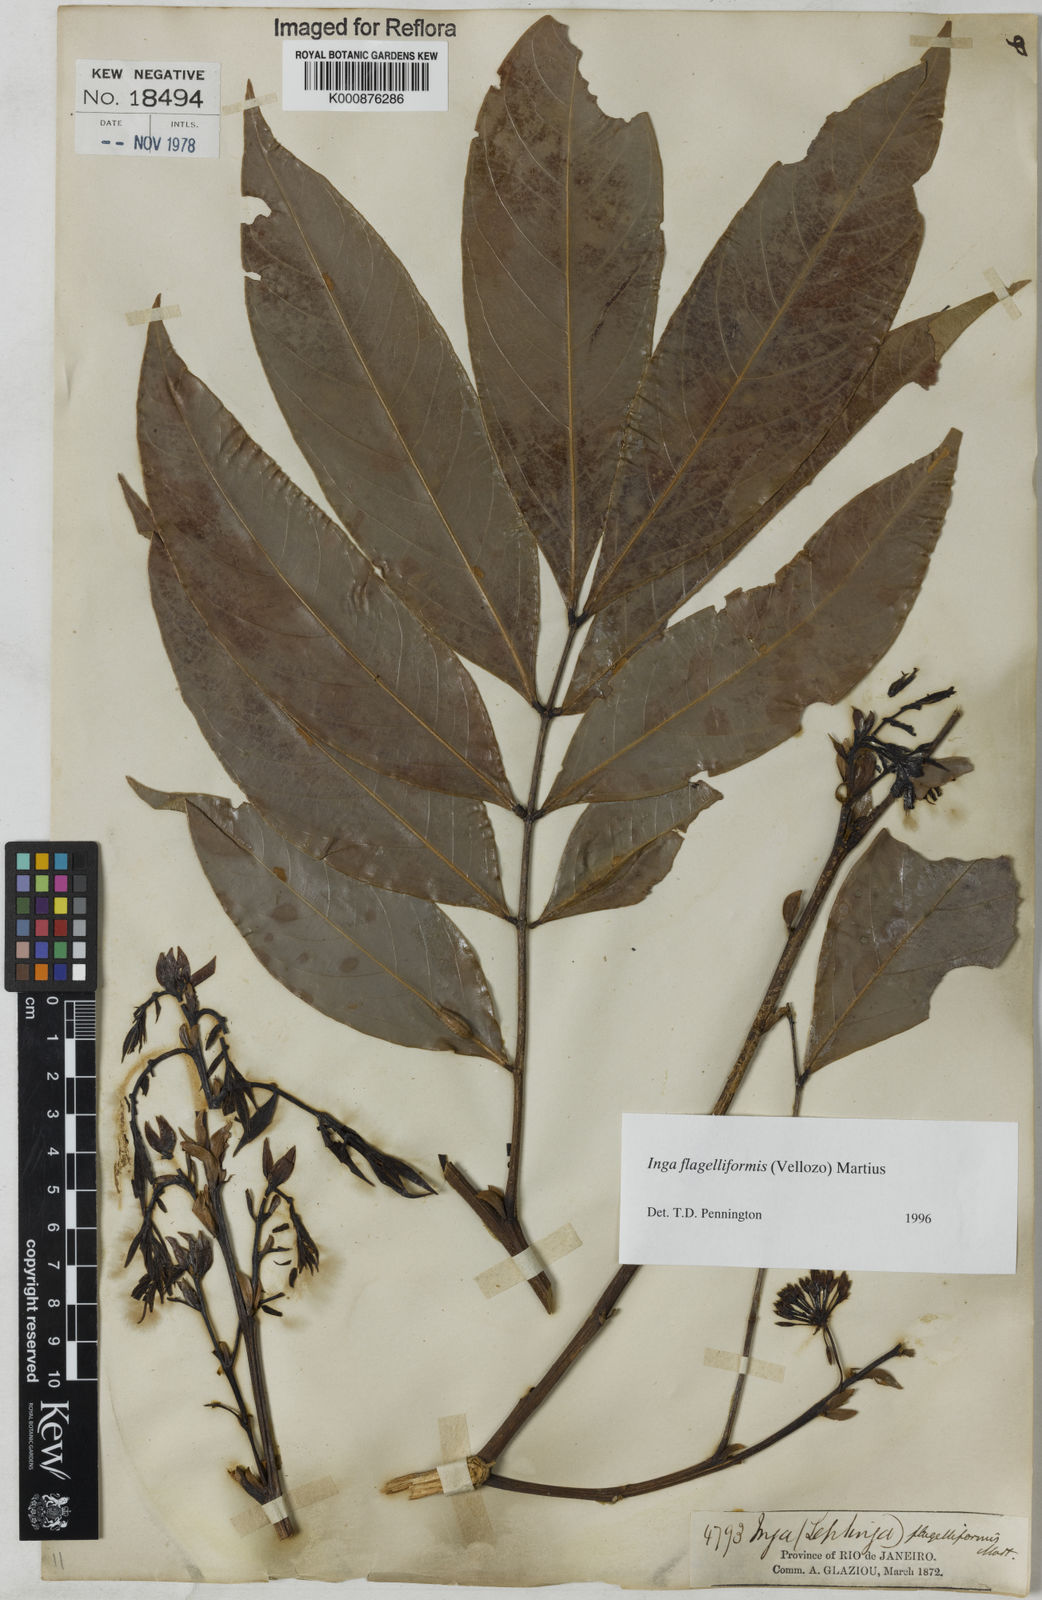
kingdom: Plantae
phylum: Tracheophyta
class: Magnoliopsida
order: Fabales
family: Fabaceae
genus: Inga
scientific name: Inga flagelliformis
